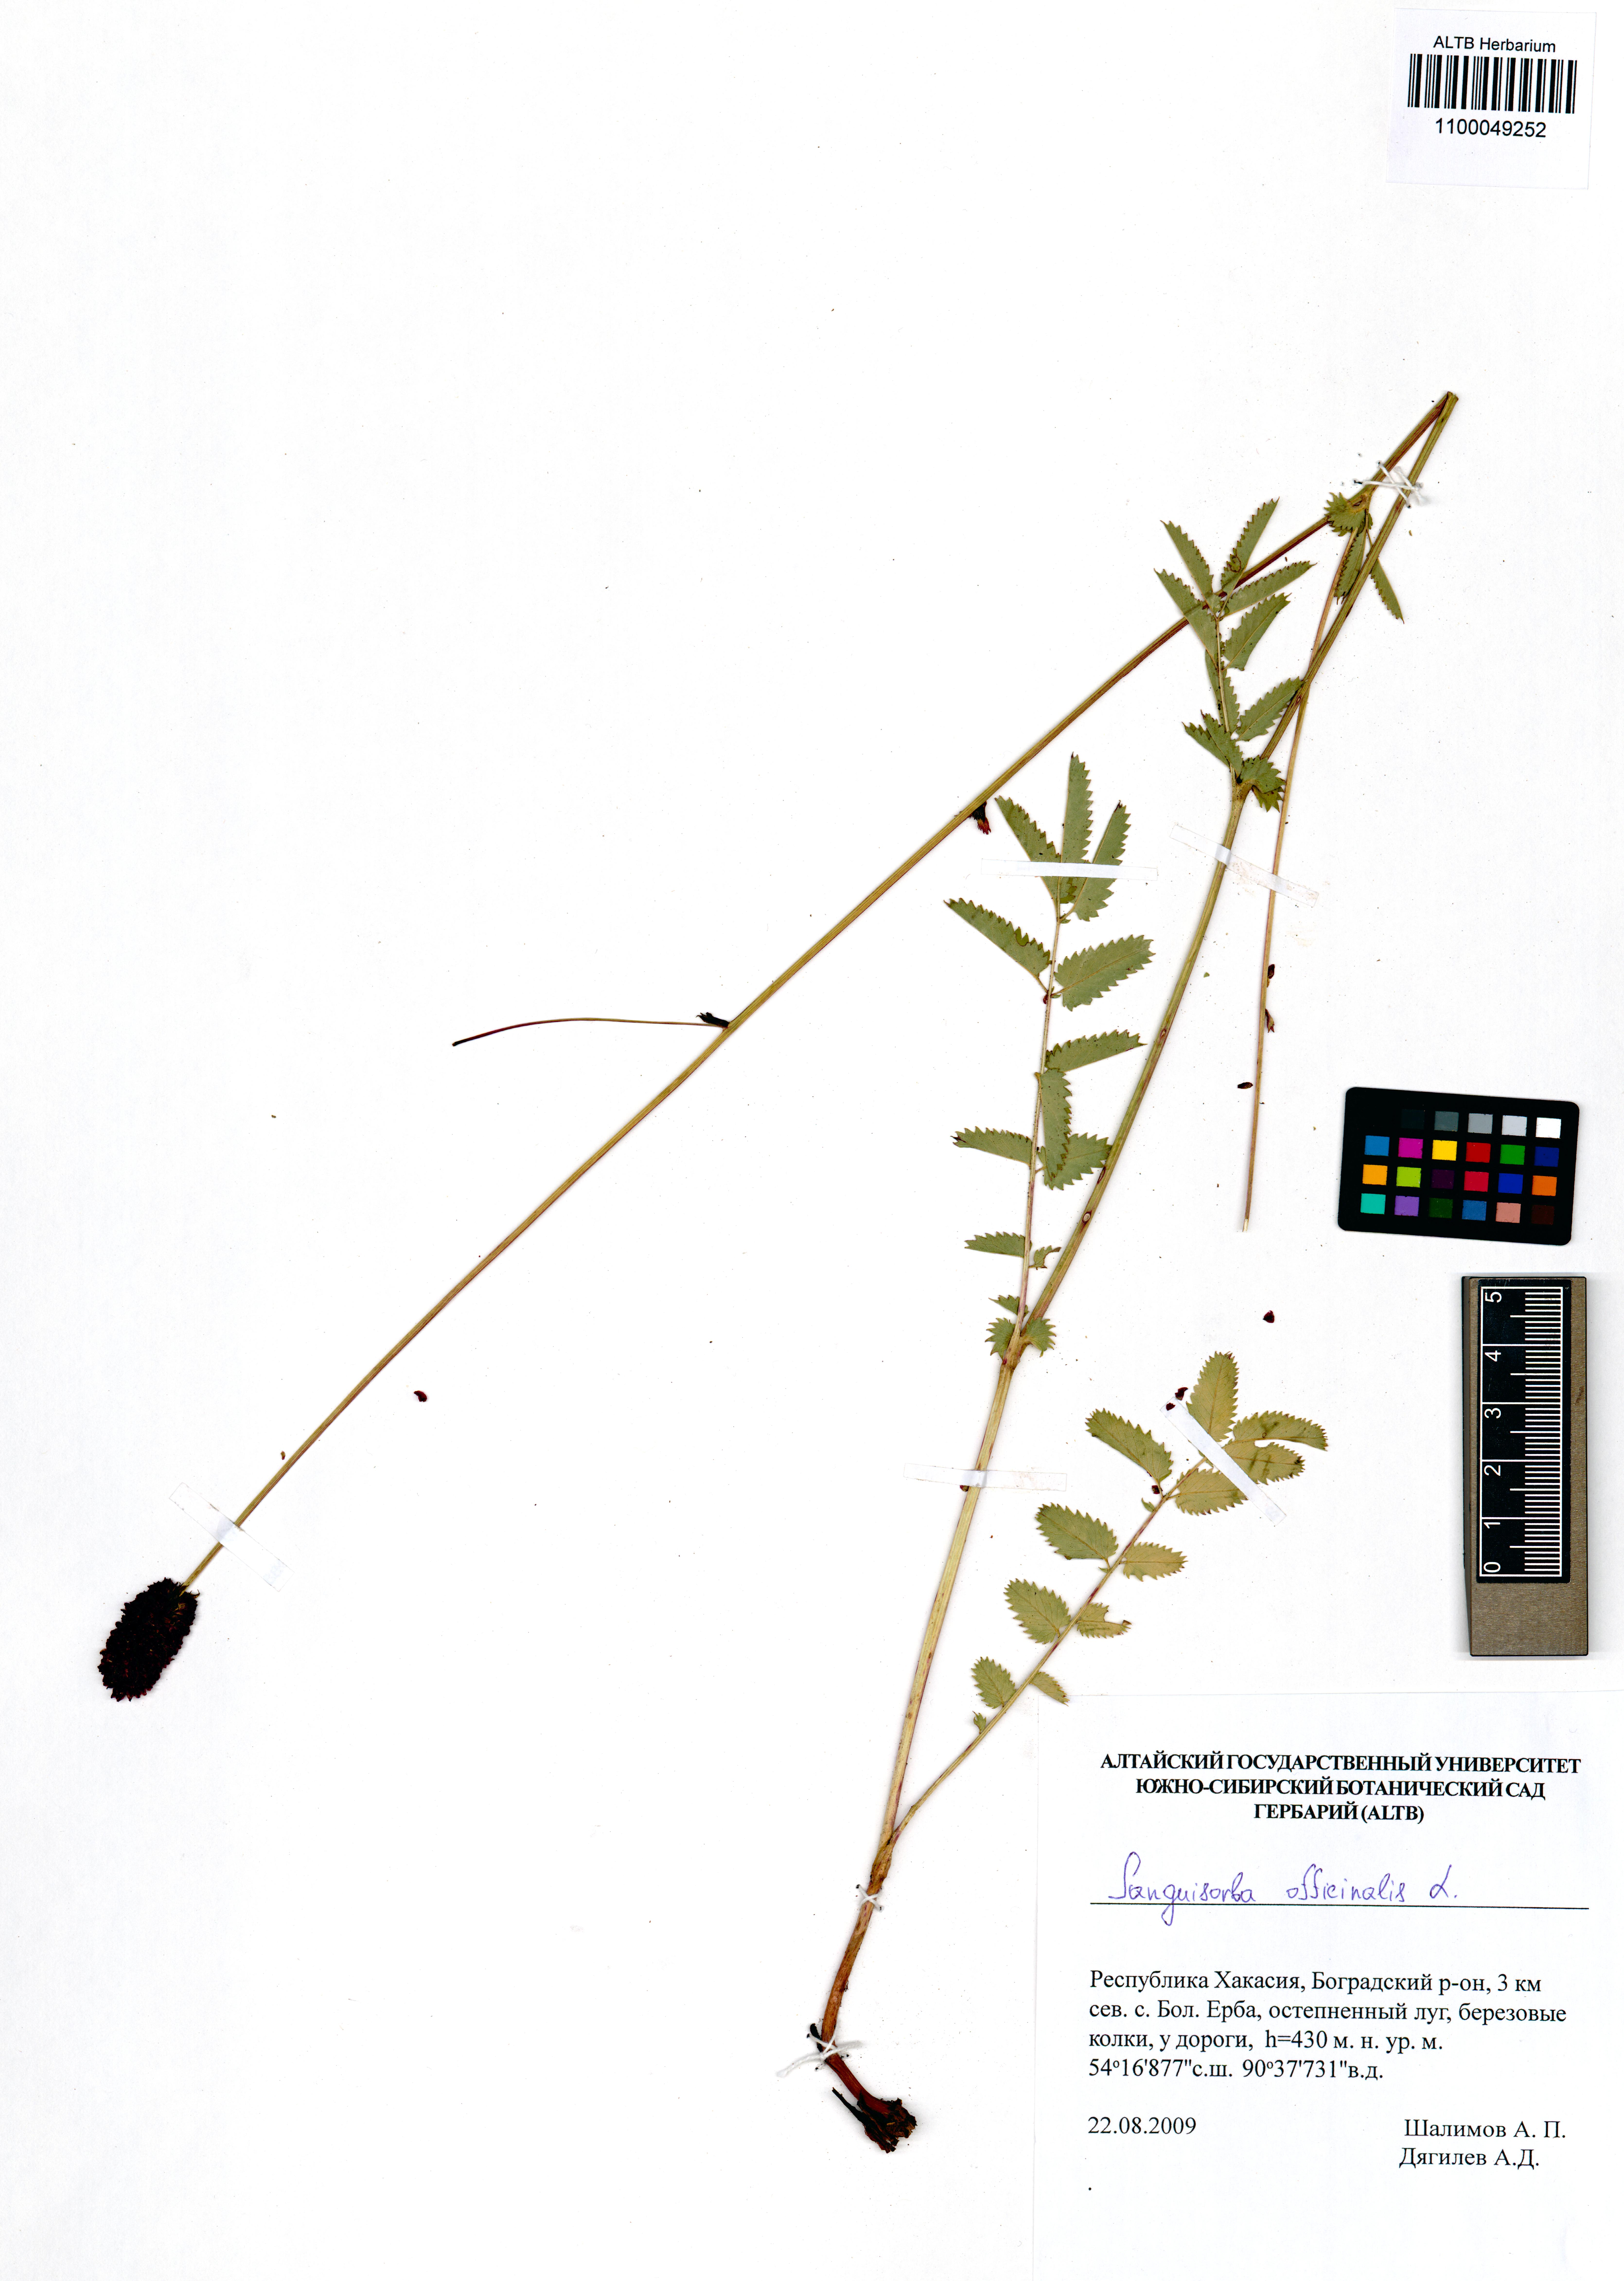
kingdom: Plantae
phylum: Tracheophyta
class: Magnoliopsida
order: Rosales
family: Rosaceae
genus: Sanguisorba
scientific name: Sanguisorba officinalis
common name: Great burnet
